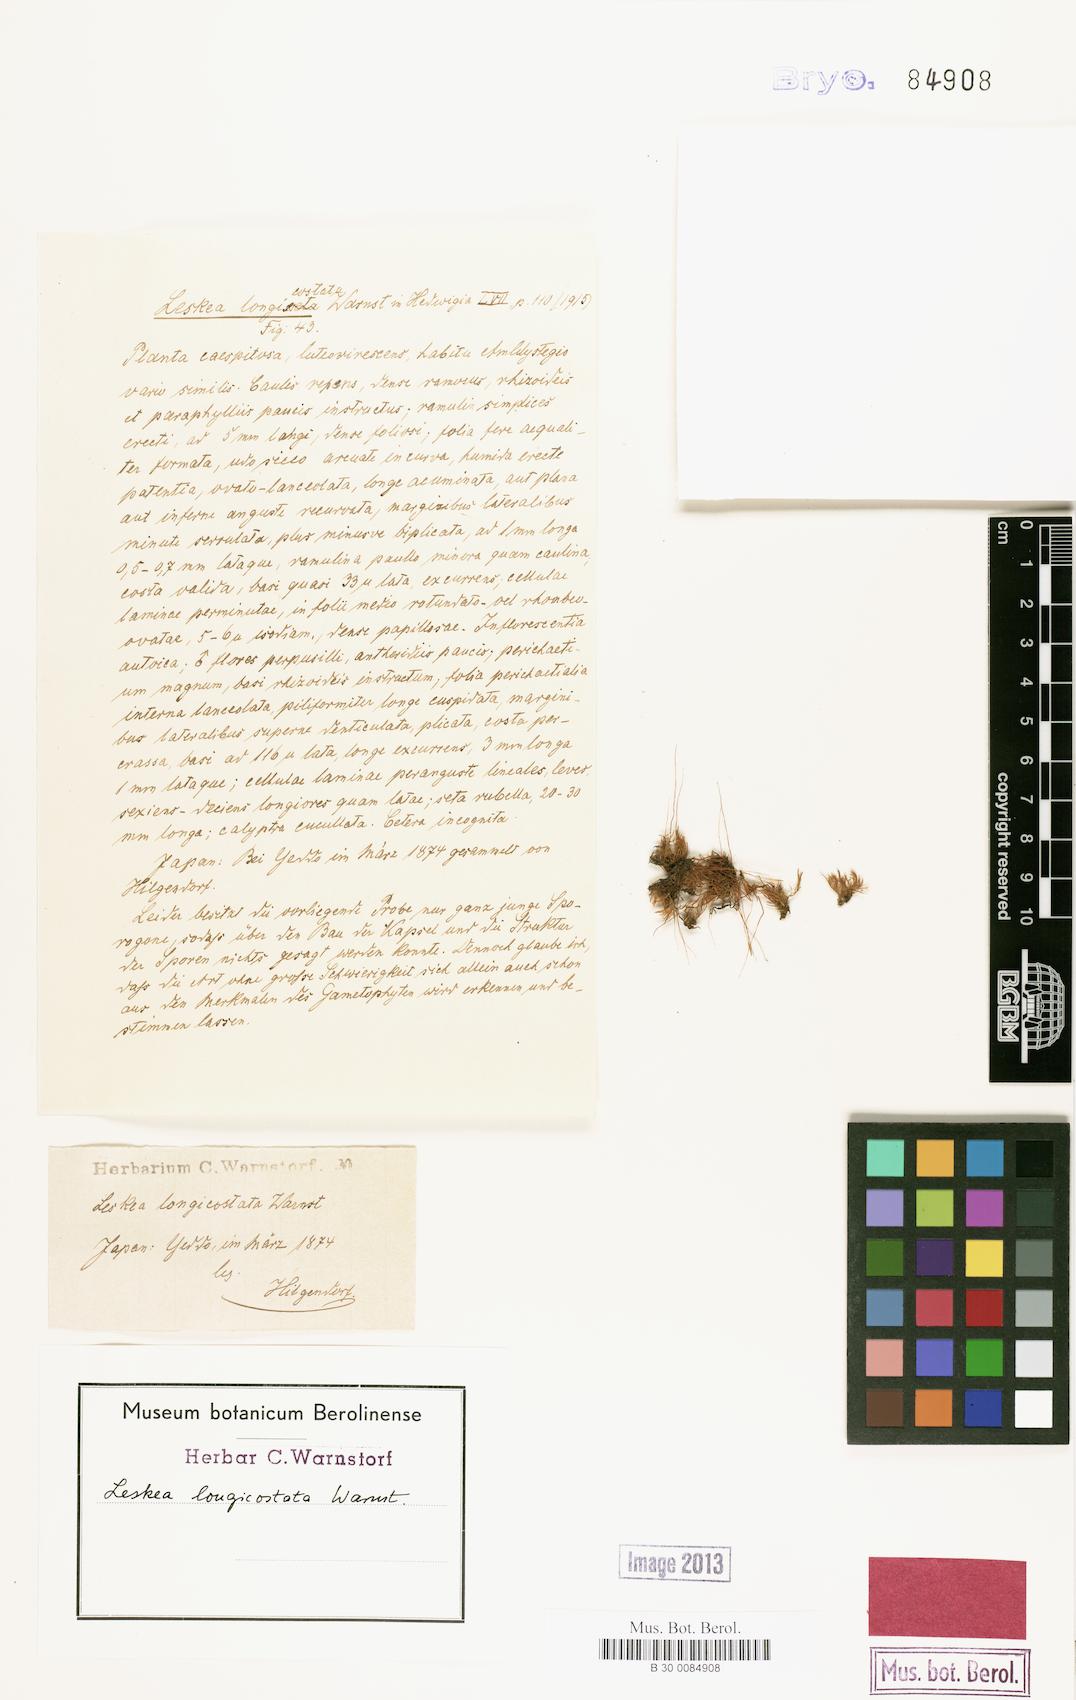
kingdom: Plantae
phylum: Bryophyta
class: Bryopsida
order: Hypnales
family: Leskeaceae
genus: Haplocladium
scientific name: Haplocladium microphyllum
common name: Tiny-leaved haplocladium
